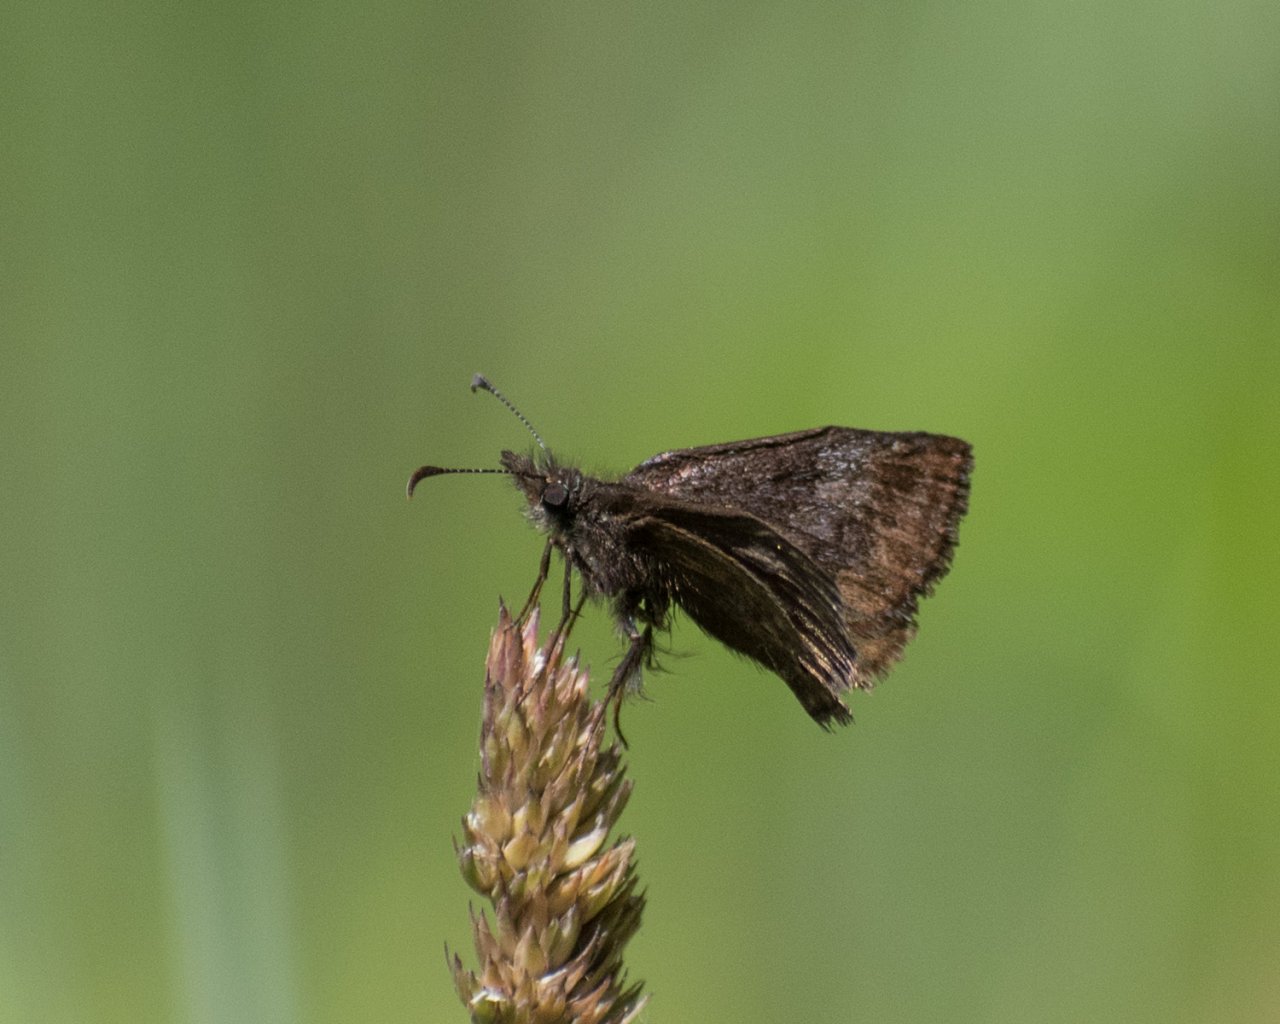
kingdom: Animalia
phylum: Arthropoda
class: Insecta
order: Lepidoptera
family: Hesperiidae
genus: Erynnis
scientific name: Erynnis
